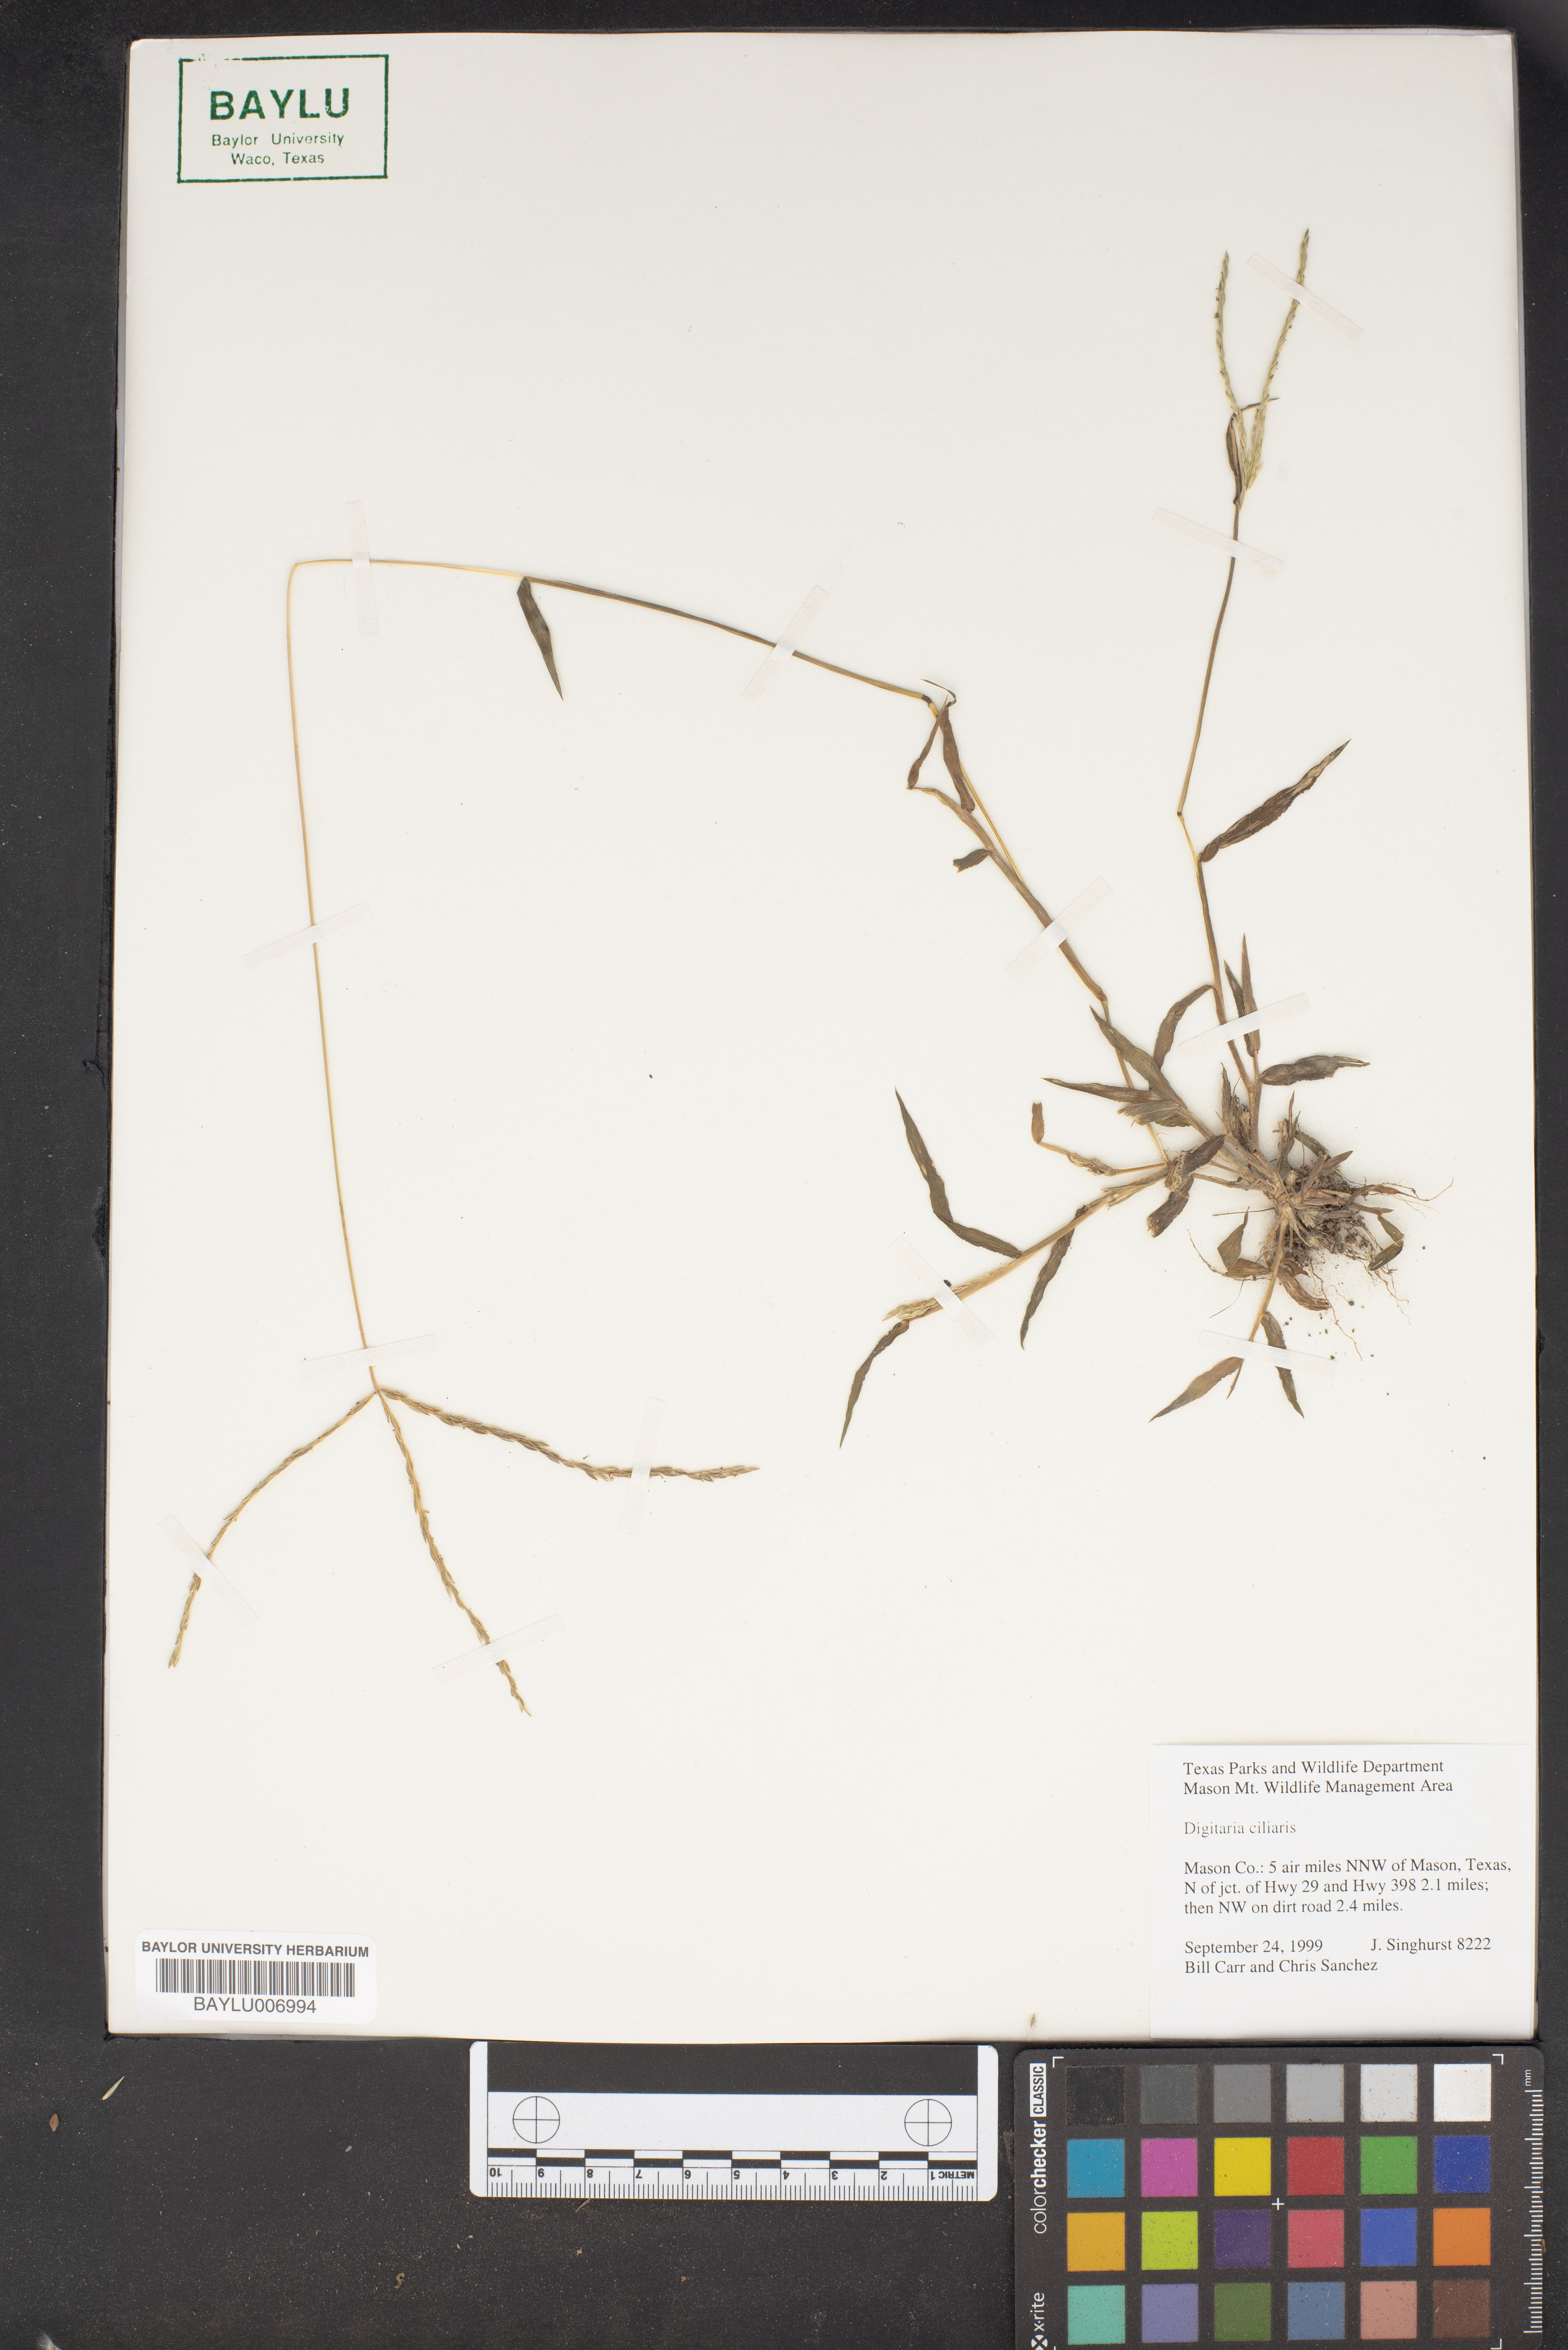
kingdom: Plantae
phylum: Tracheophyta
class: Liliopsida
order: Poales
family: Poaceae
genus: Digitaria
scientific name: Digitaria ciliaris
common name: Tropical finger-grass
